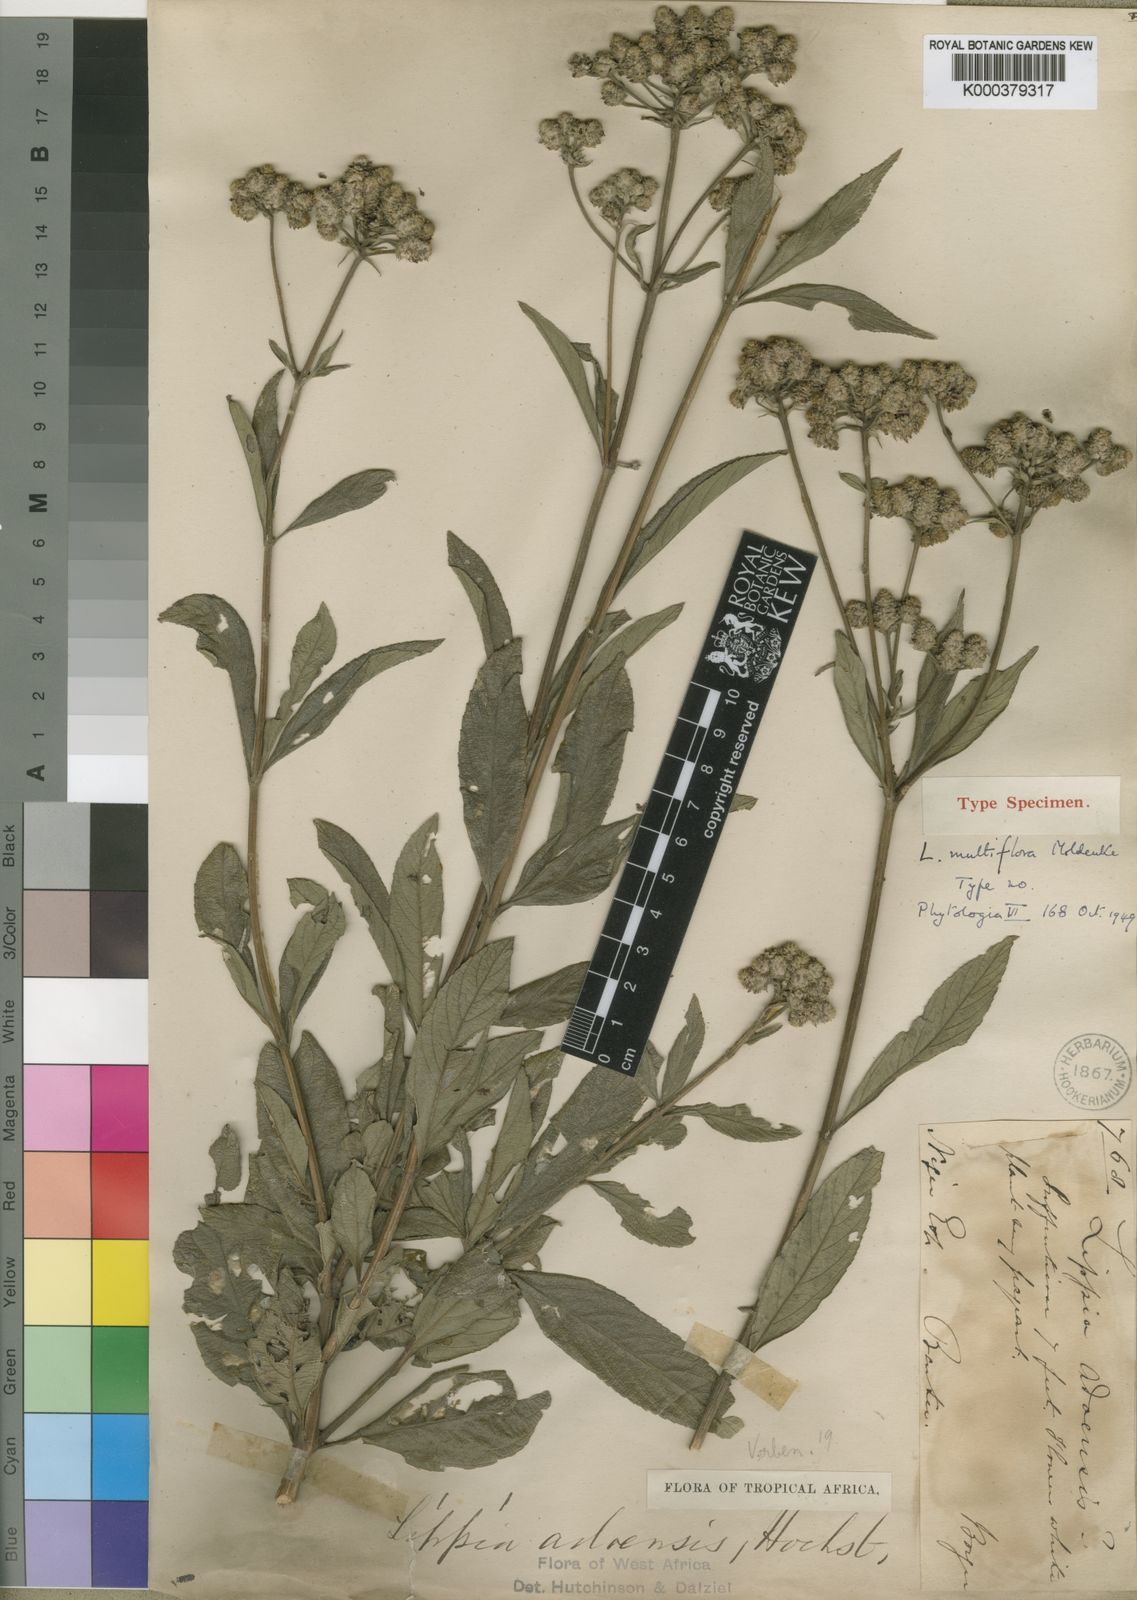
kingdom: Plantae
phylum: Tracheophyta
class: Magnoliopsida
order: Lamiales
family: Verbenaceae
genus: Lippia
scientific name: Lippia multiflora
